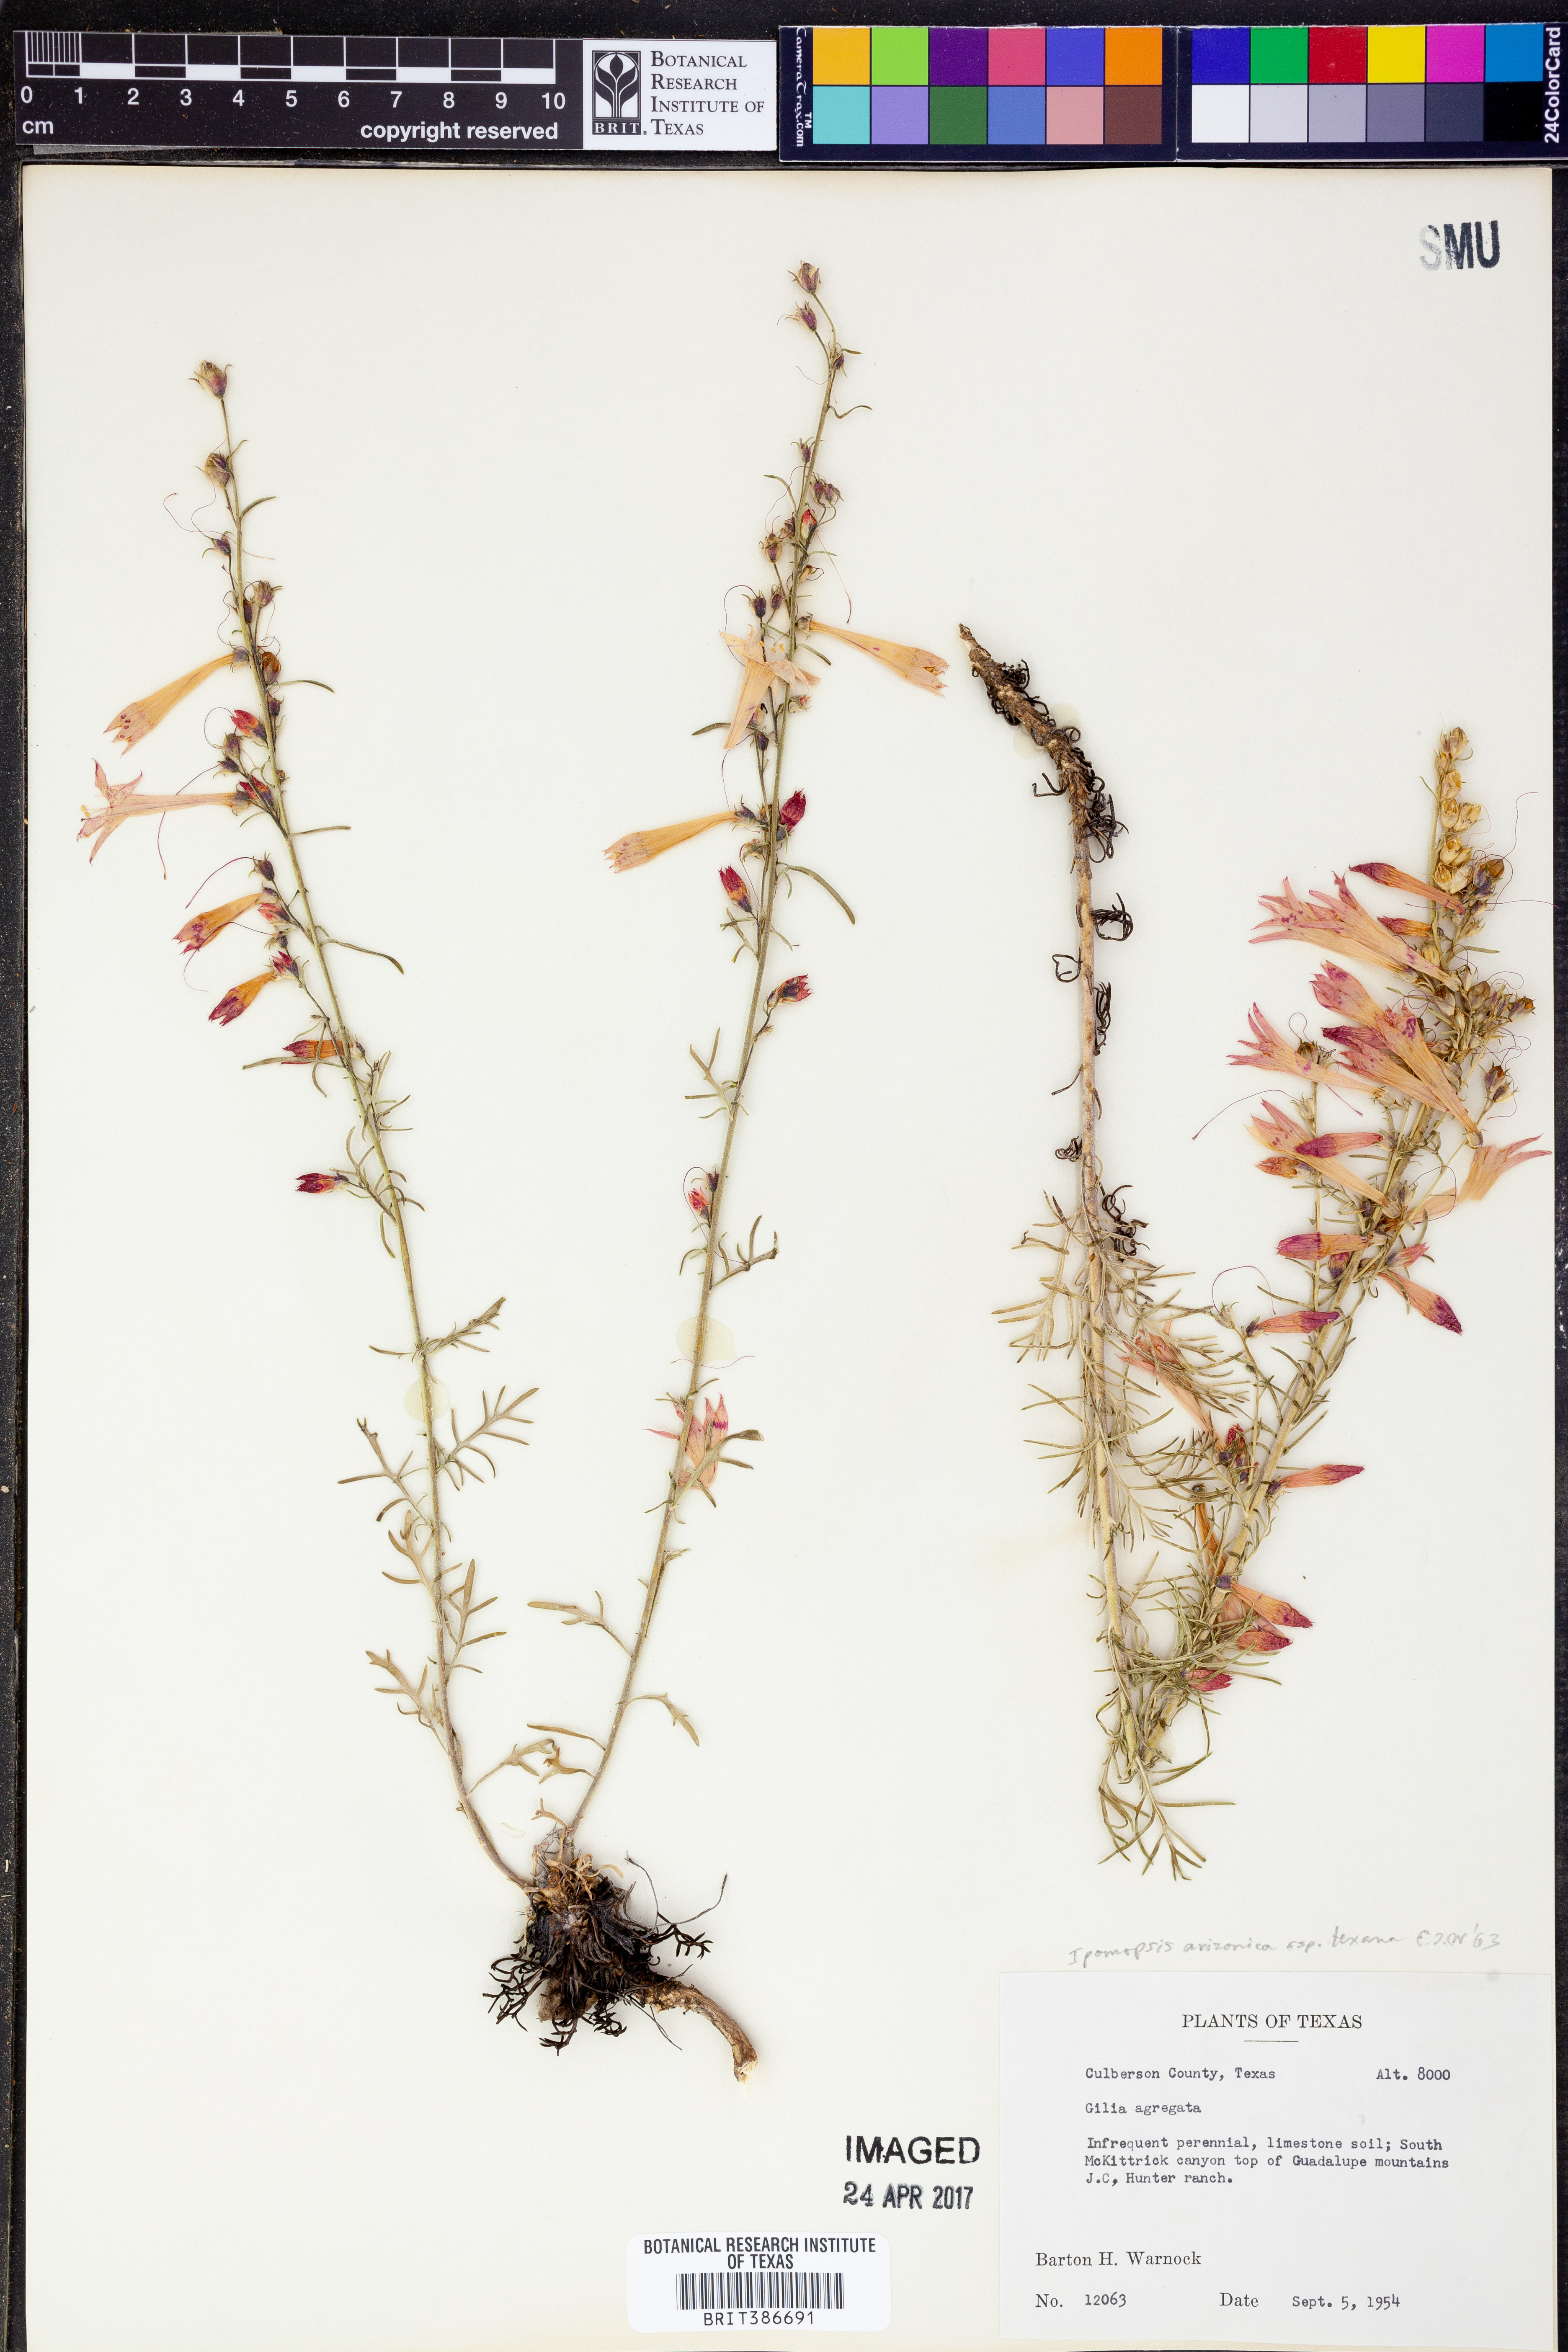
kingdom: Plantae
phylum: Tracheophyta
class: Magnoliopsida
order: Ericales
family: Polemoniaceae
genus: Ipomopsis
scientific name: Ipomopsis aggregata
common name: Scarlet gilia
